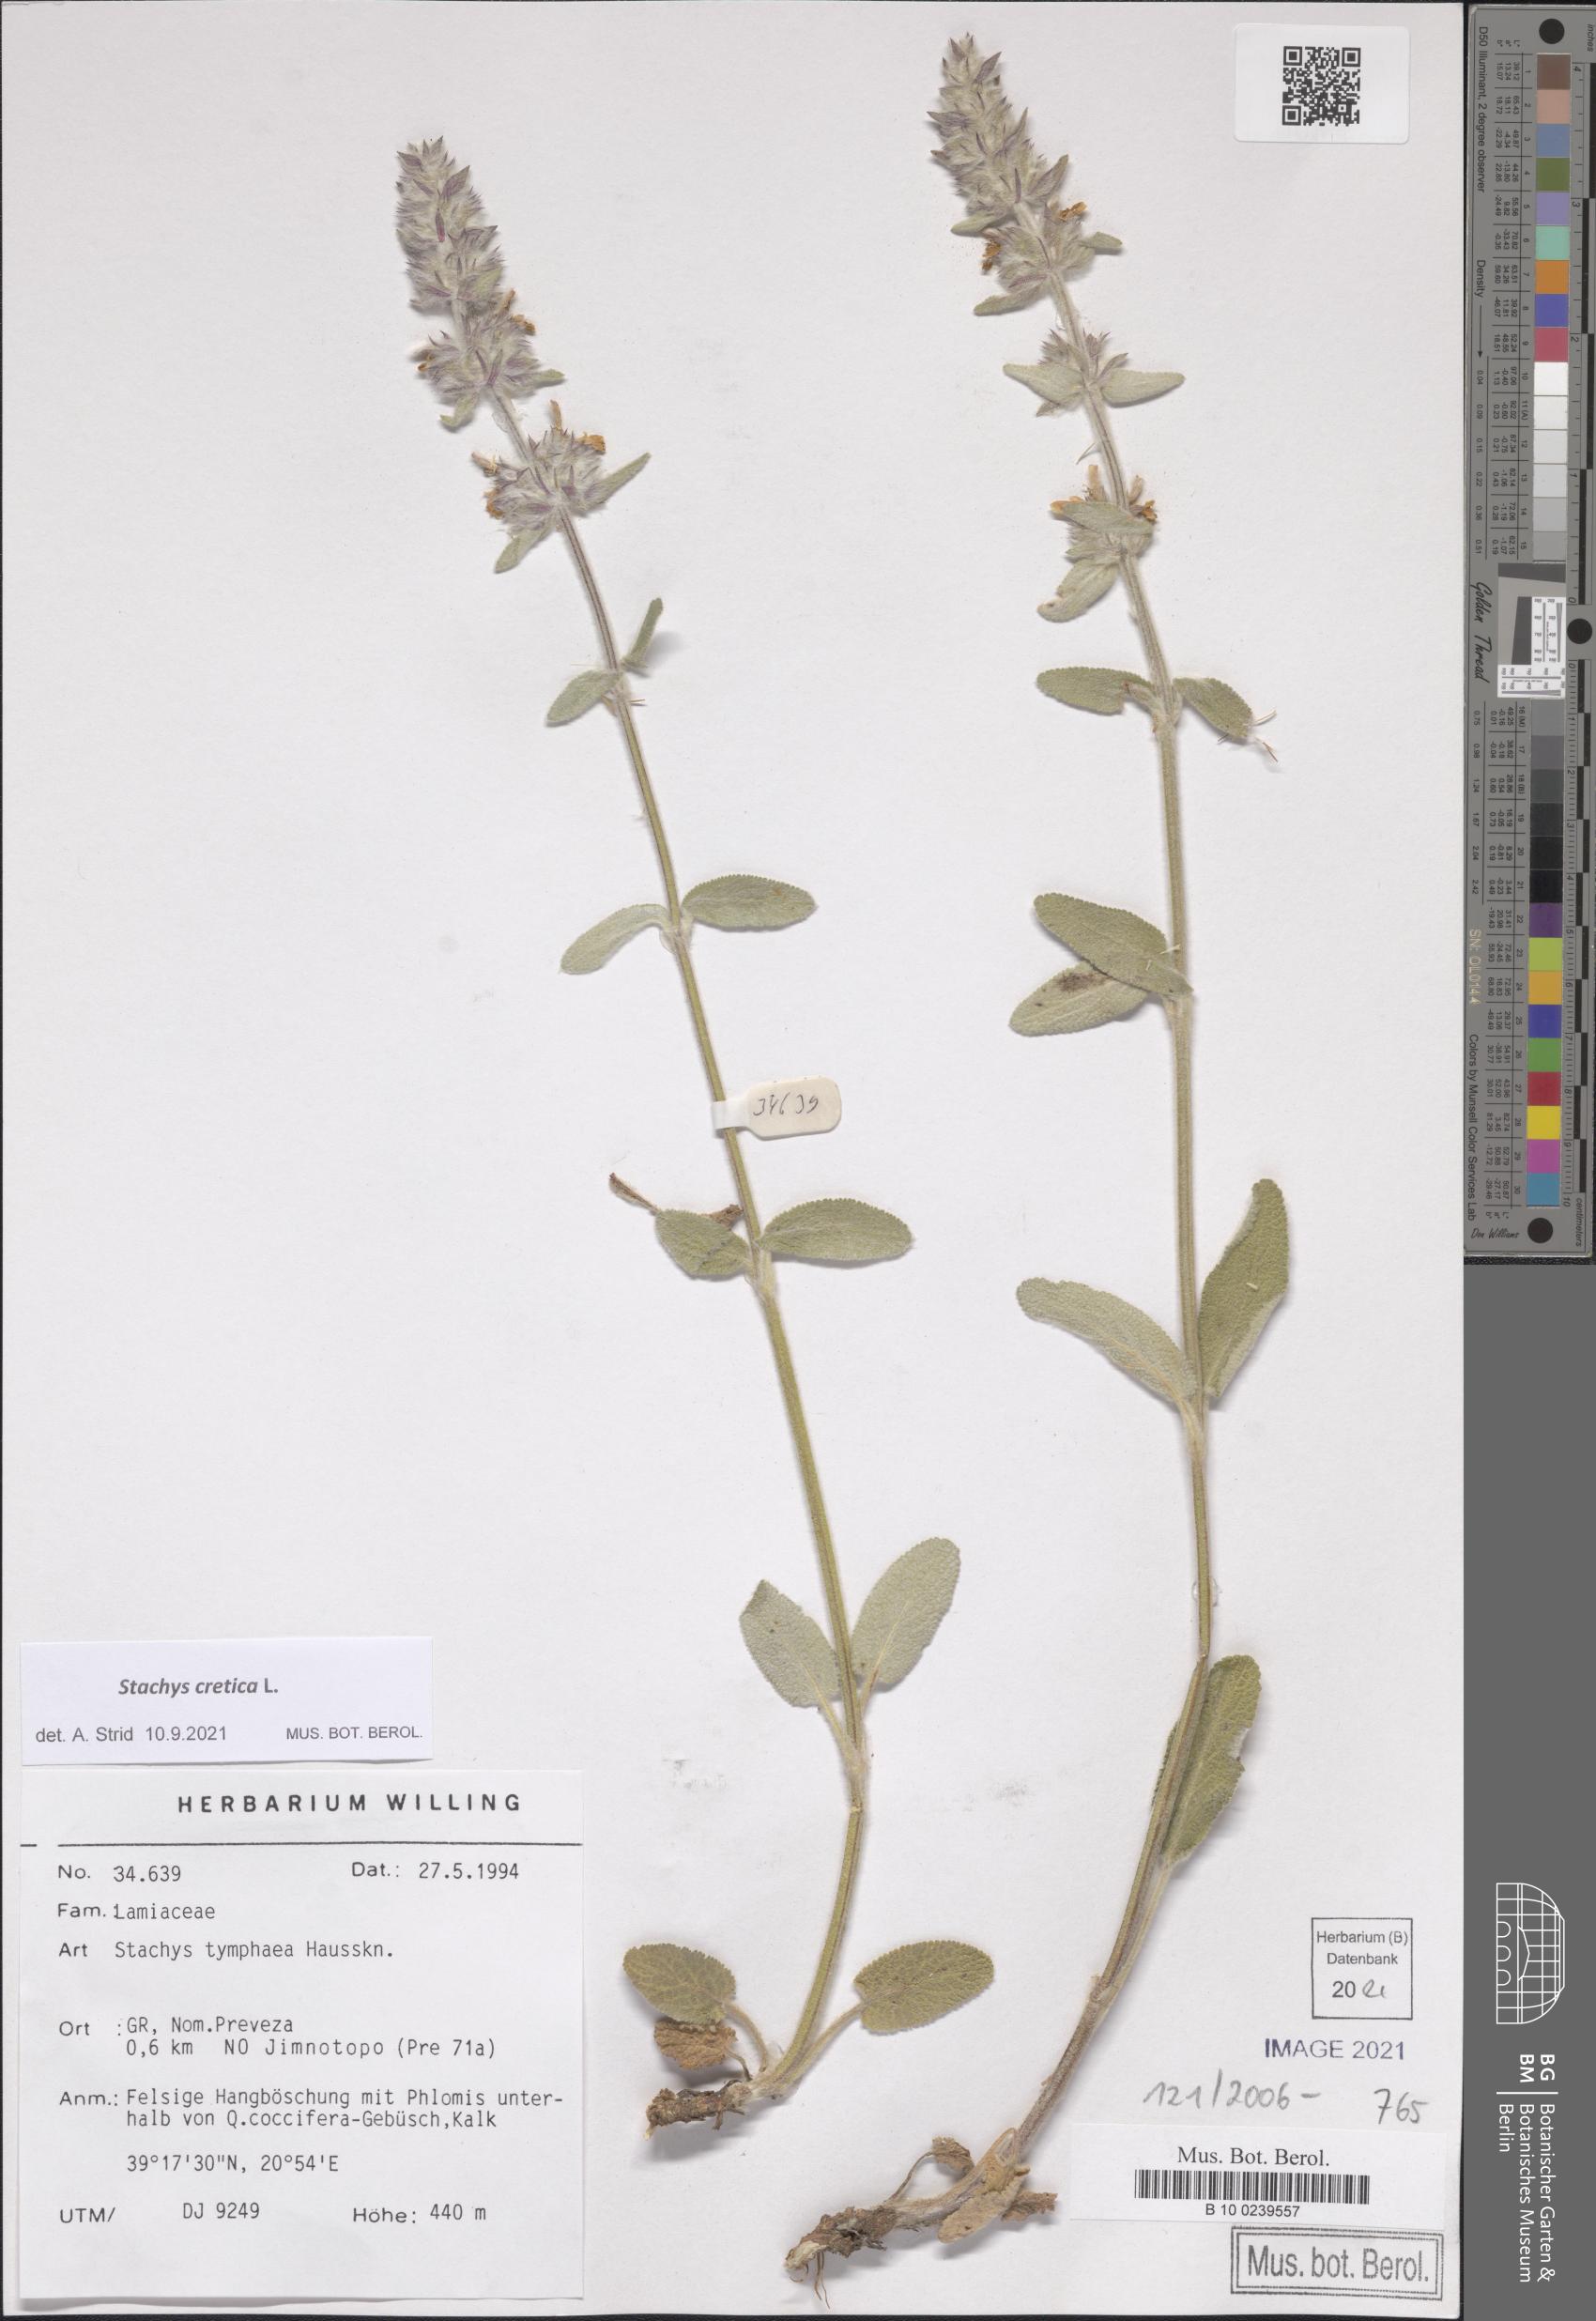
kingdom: Plantae
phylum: Tracheophyta
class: Magnoliopsida
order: Lamiales
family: Lamiaceae
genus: Stachys
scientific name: Stachys cretica
